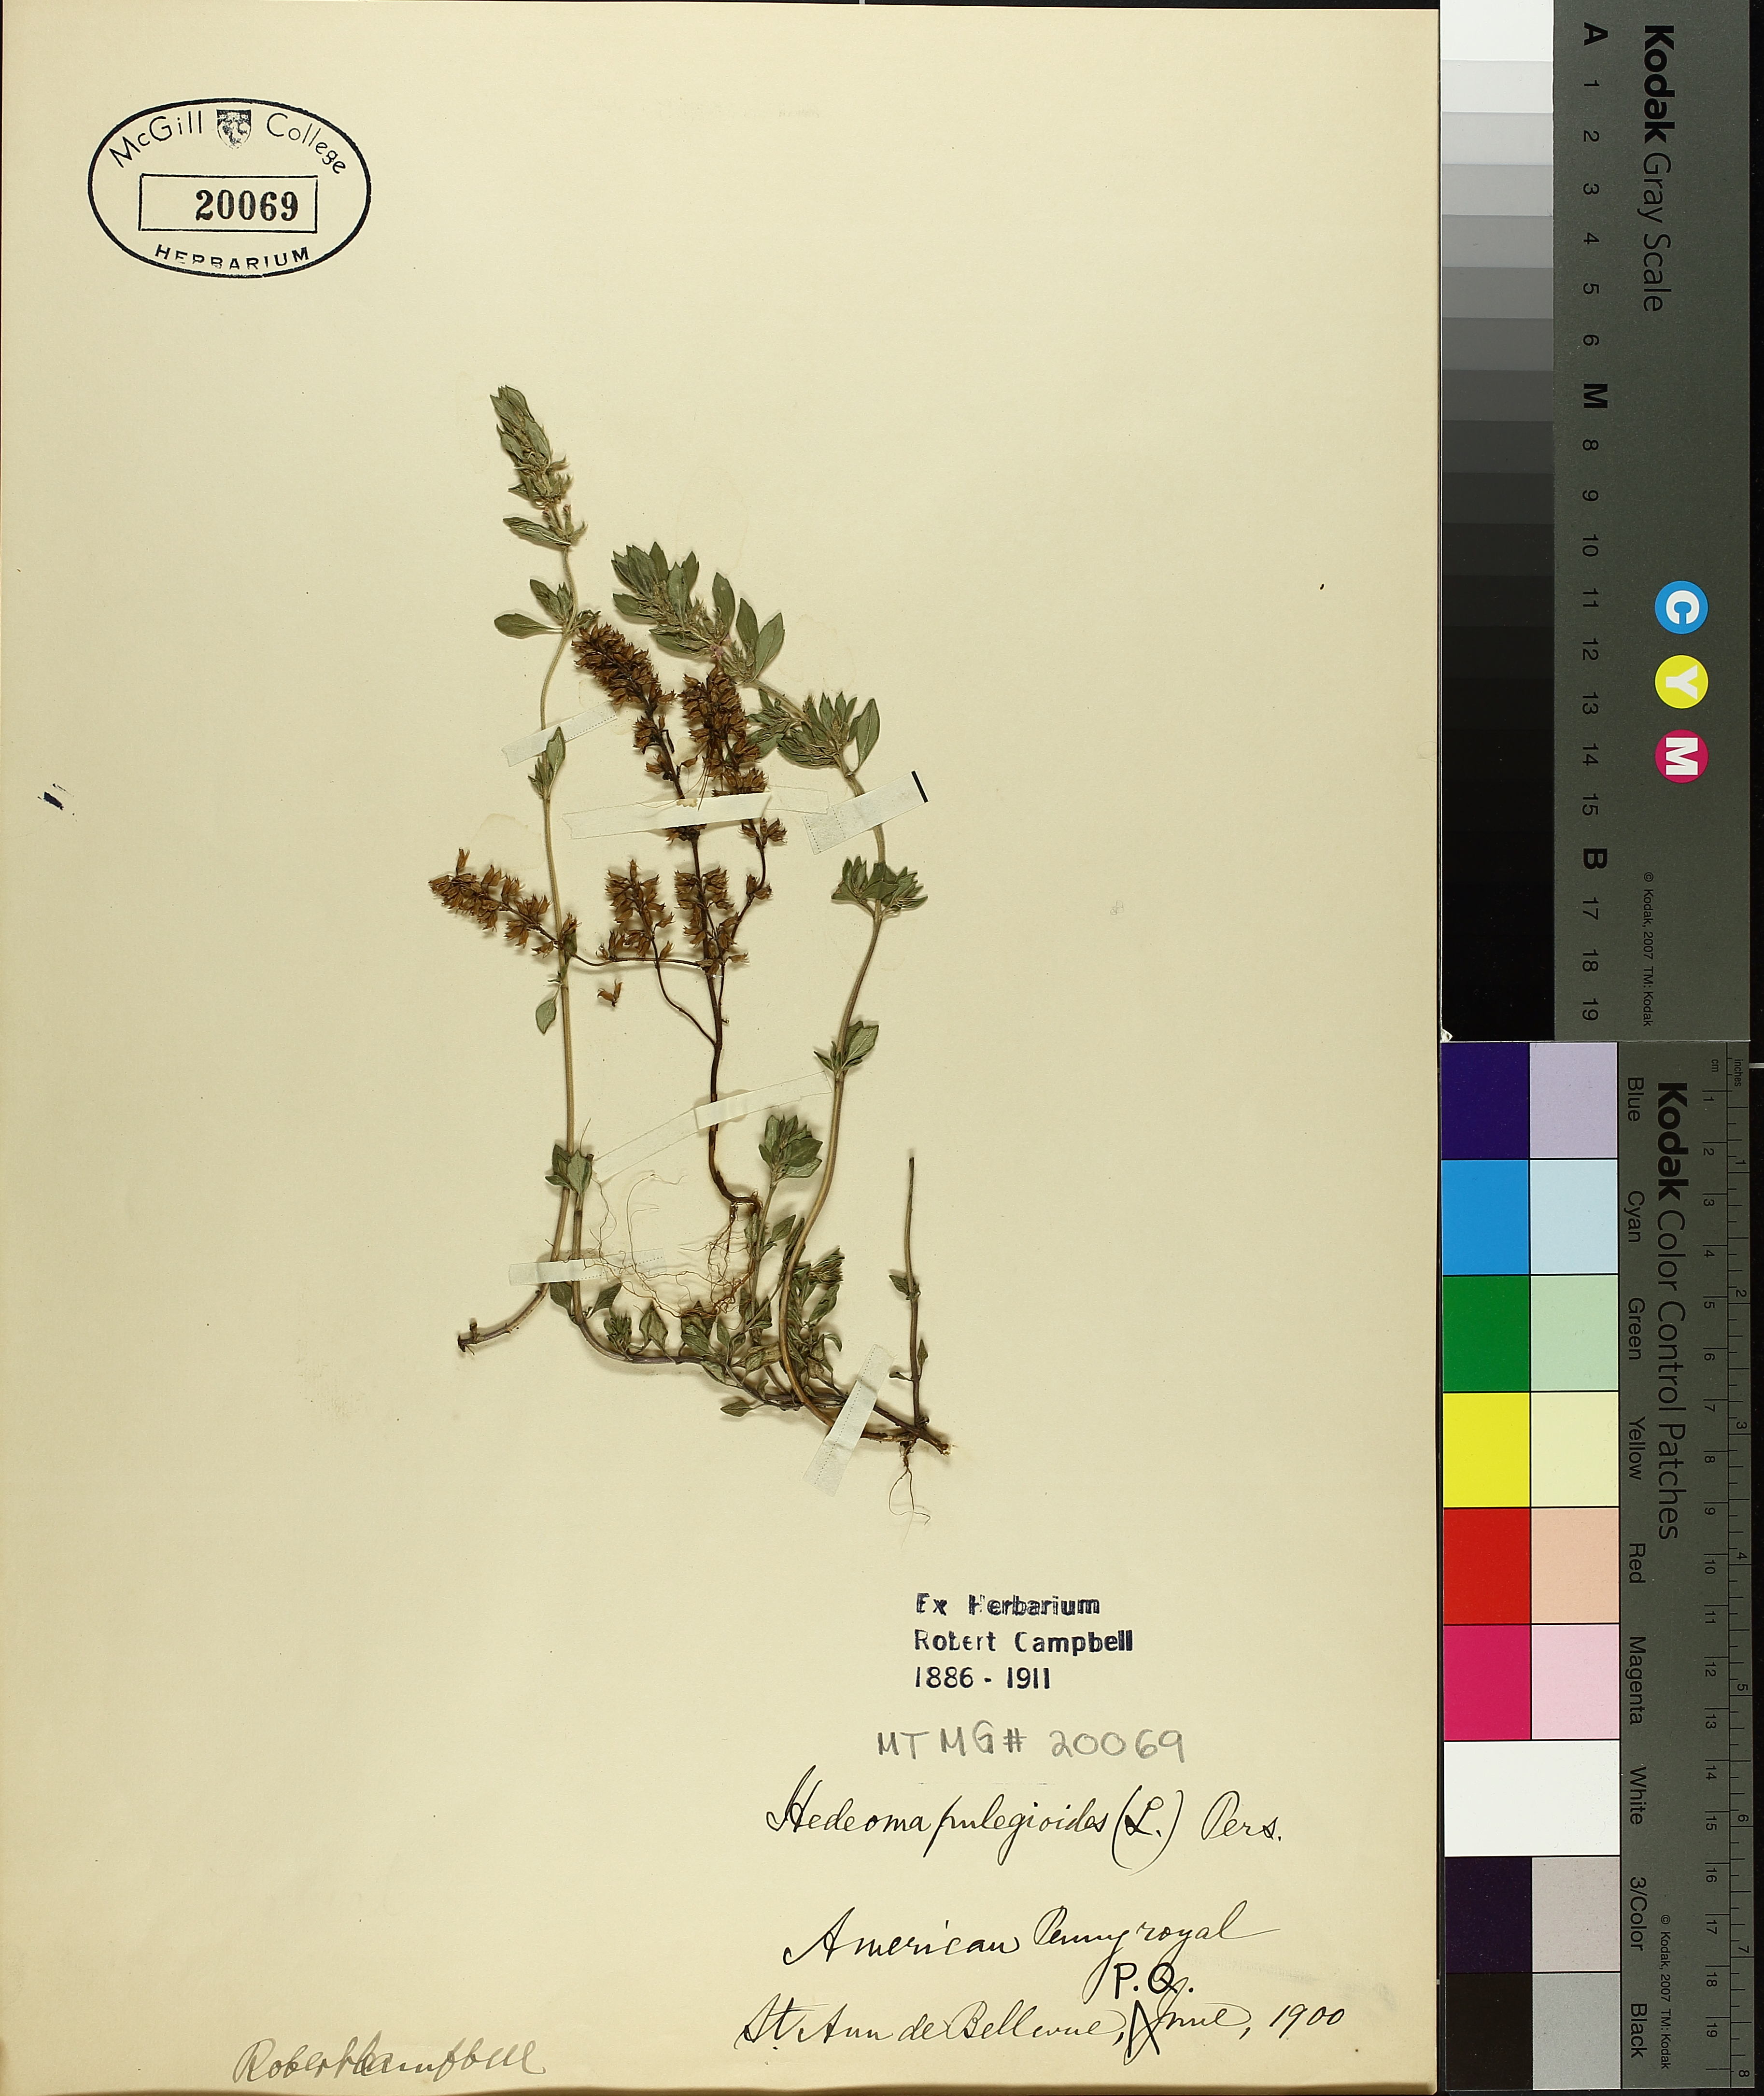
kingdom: Plantae
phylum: Tracheophyta
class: Magnoliopsida
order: Lamiales
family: Lamiaceae
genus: Hedeoma
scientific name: Hedeoma pulegioides
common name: American false pennyroyal
